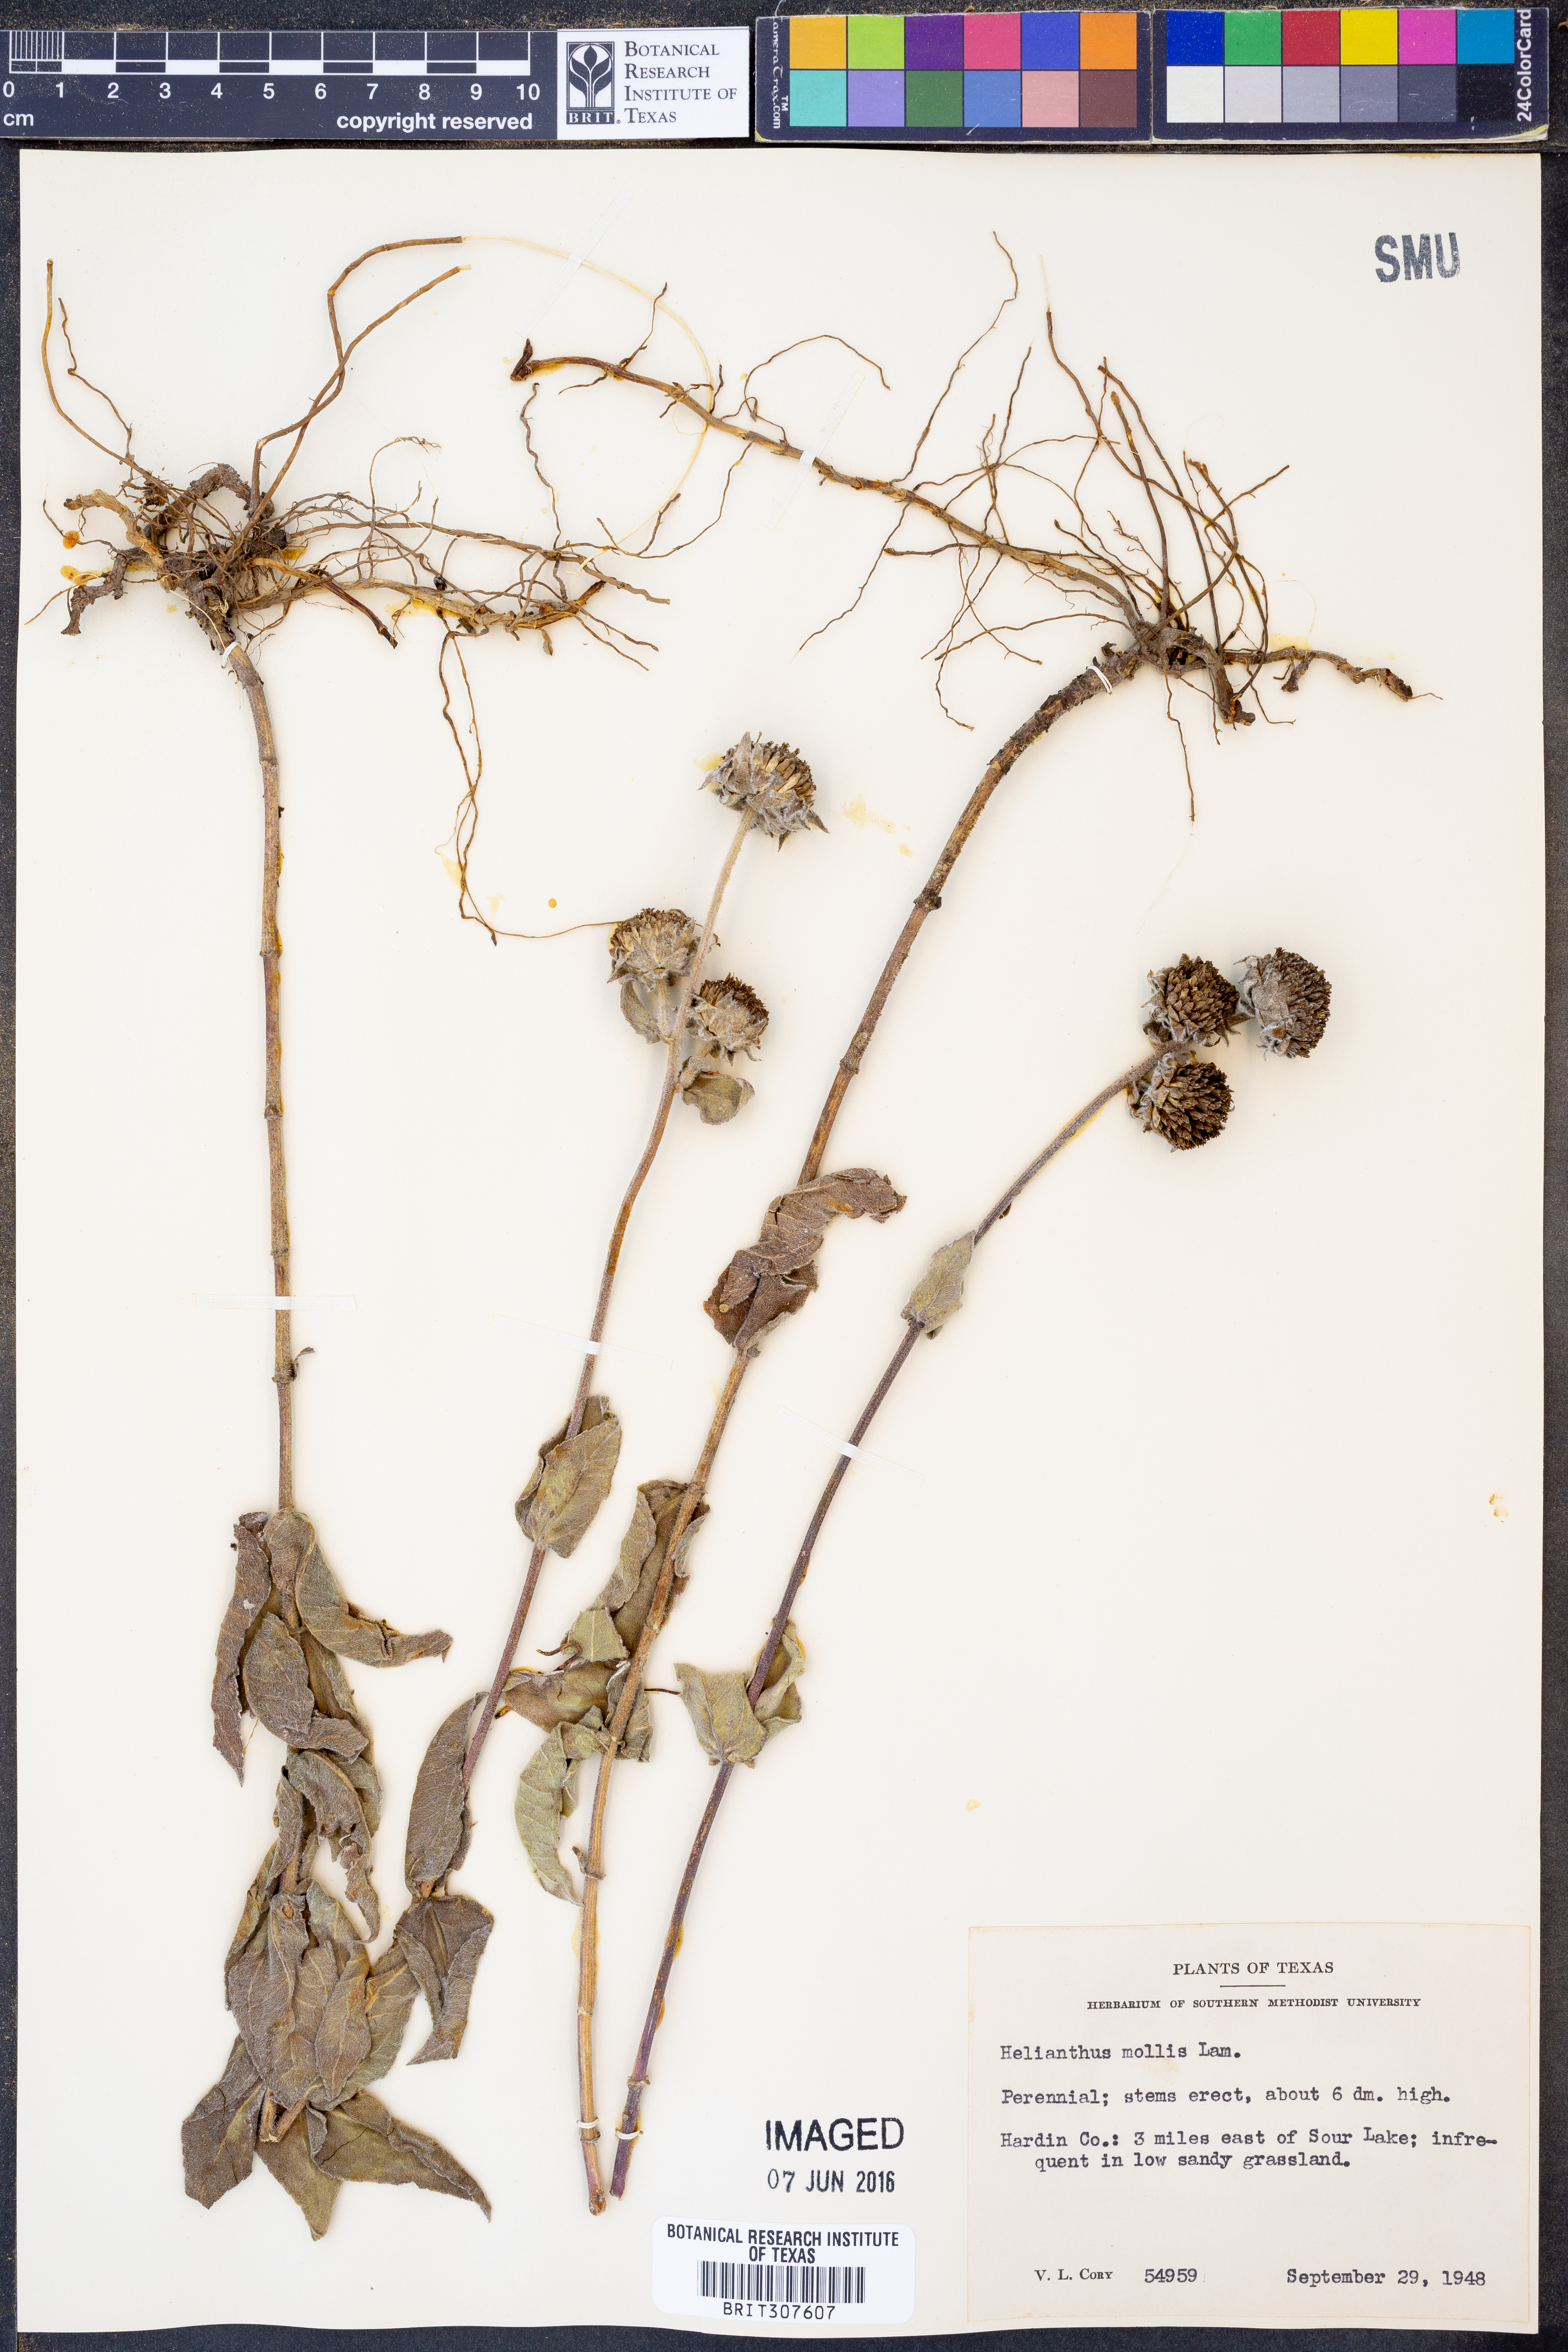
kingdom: Plantae
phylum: Tracheophyta
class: Magnoliopsida
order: Asterales
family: Asteraceae
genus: Helianthus
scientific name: Helianthus mollis
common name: Ashy sunflower
